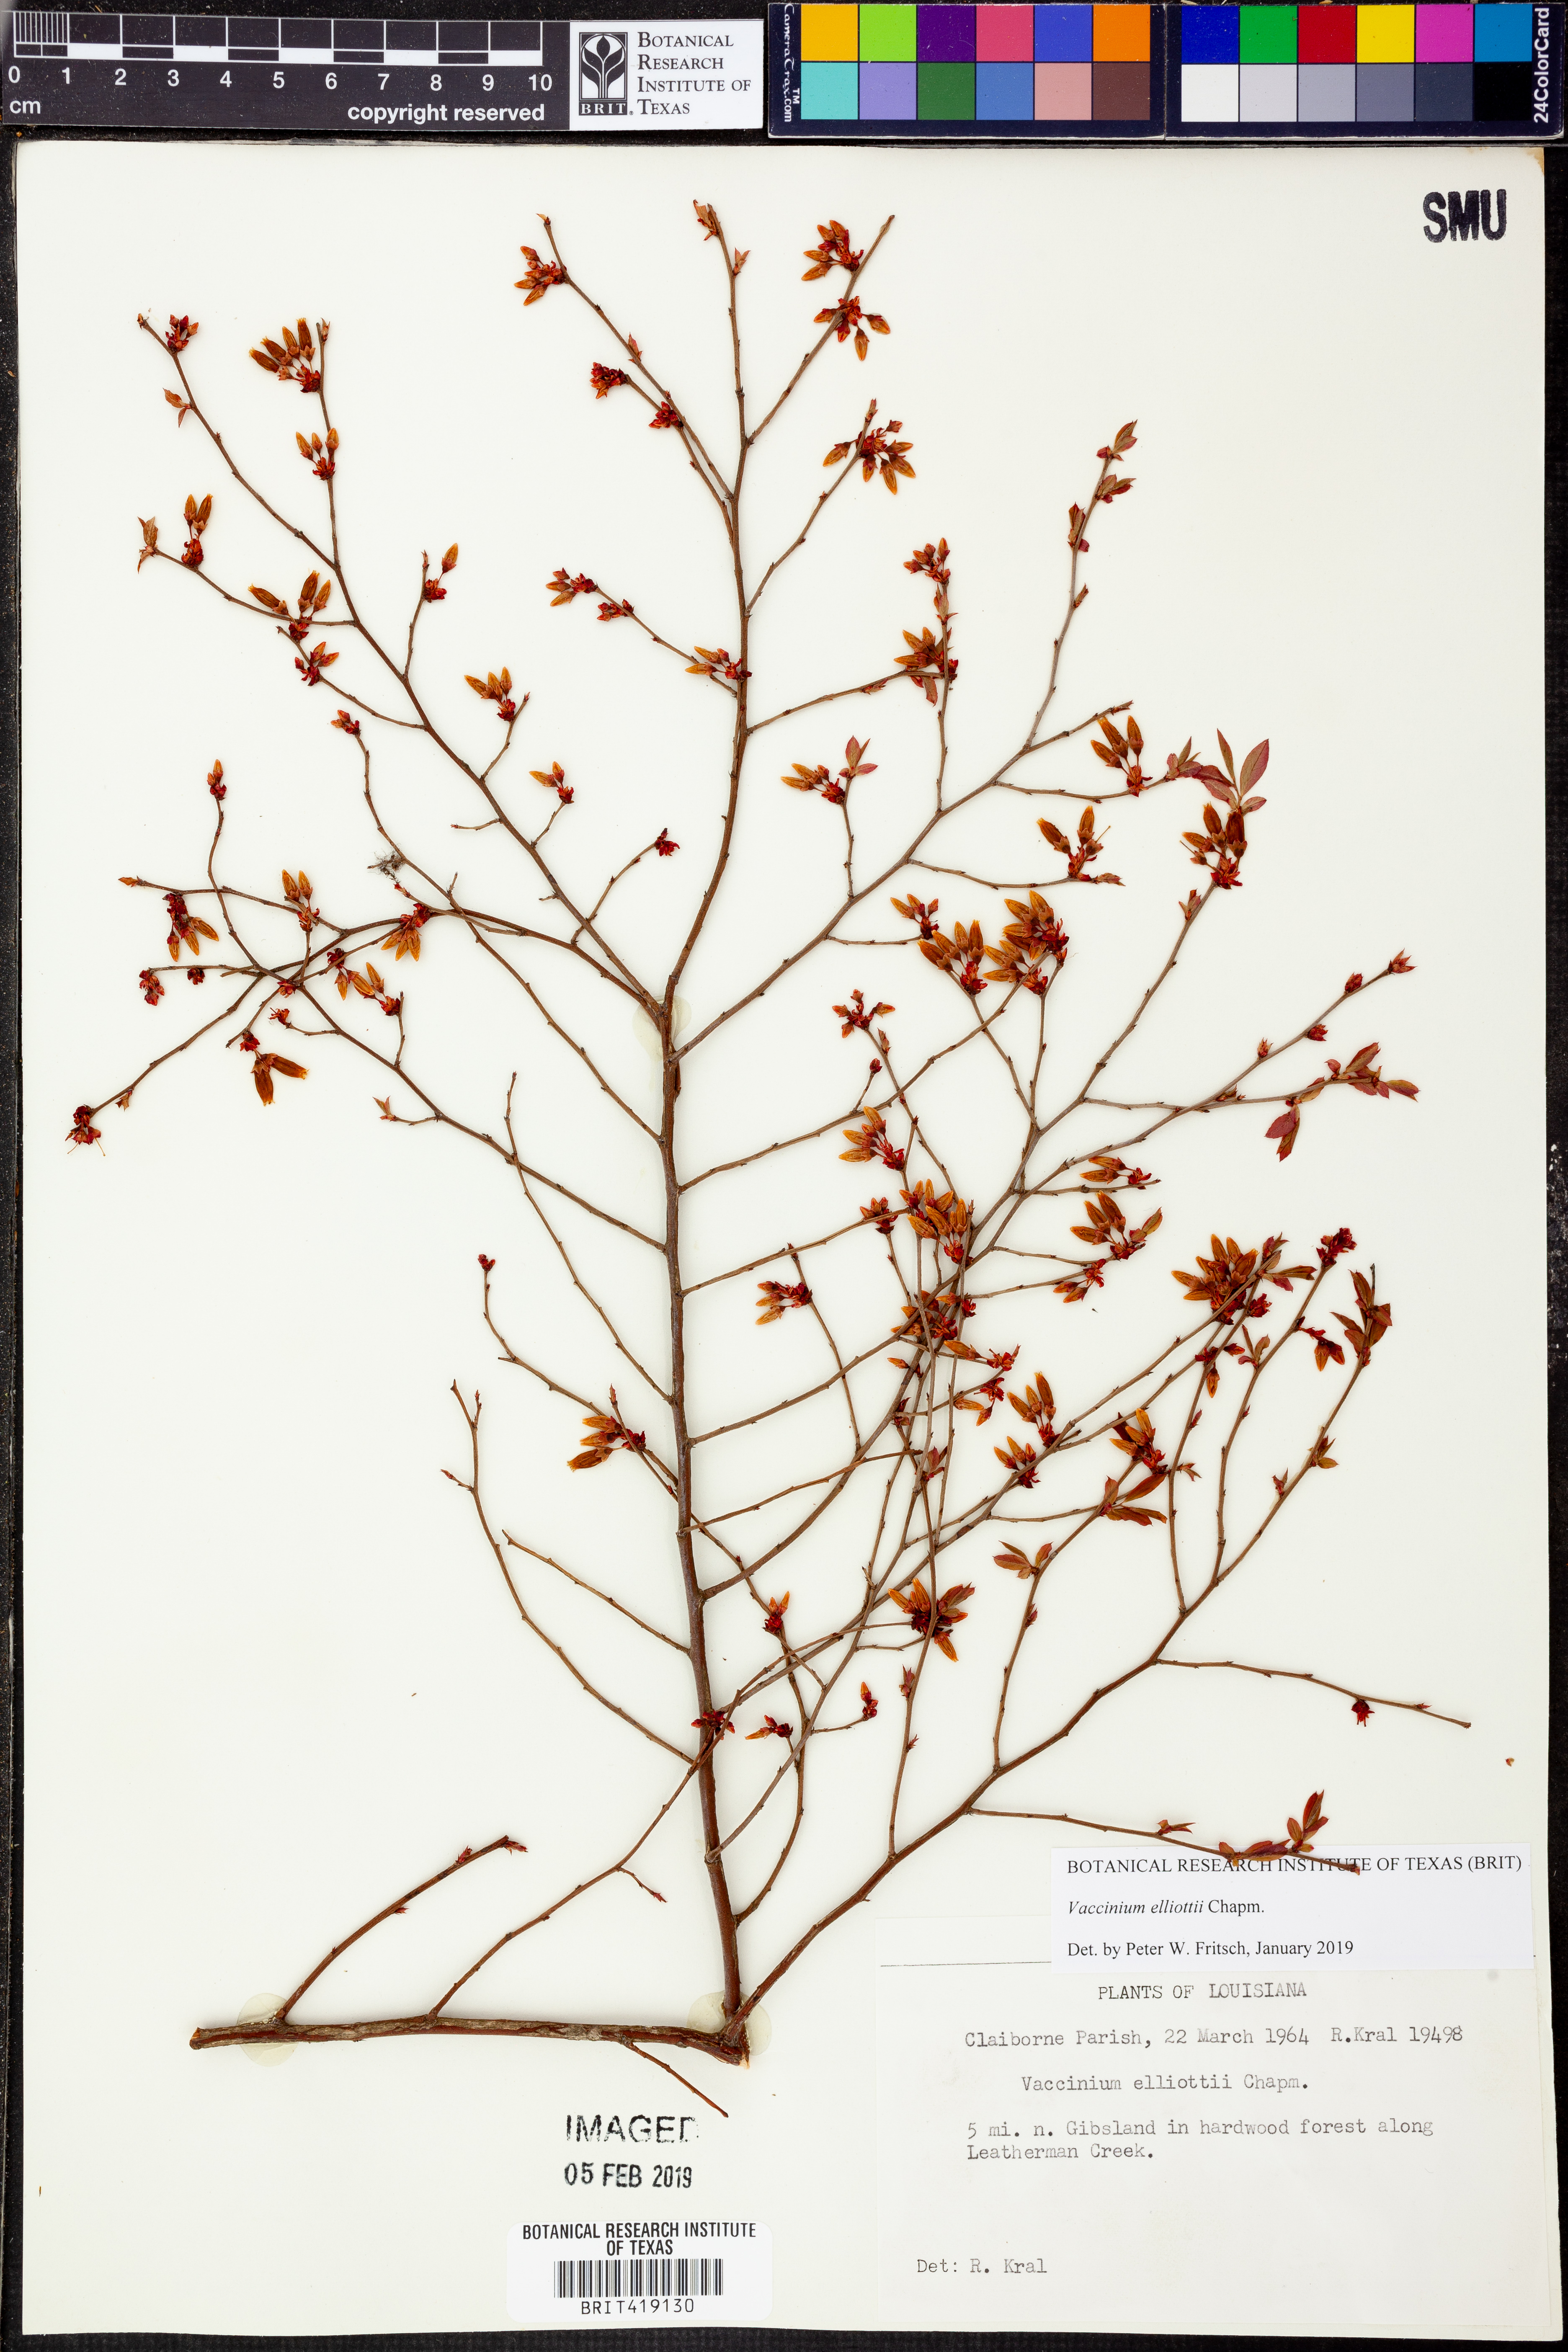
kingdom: Plantae
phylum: Tracheophyta
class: Magnoliopsida
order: Ericales
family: Ericaceae
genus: Vaccinium
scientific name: Vaccinium corymbosum
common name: Blueberry
